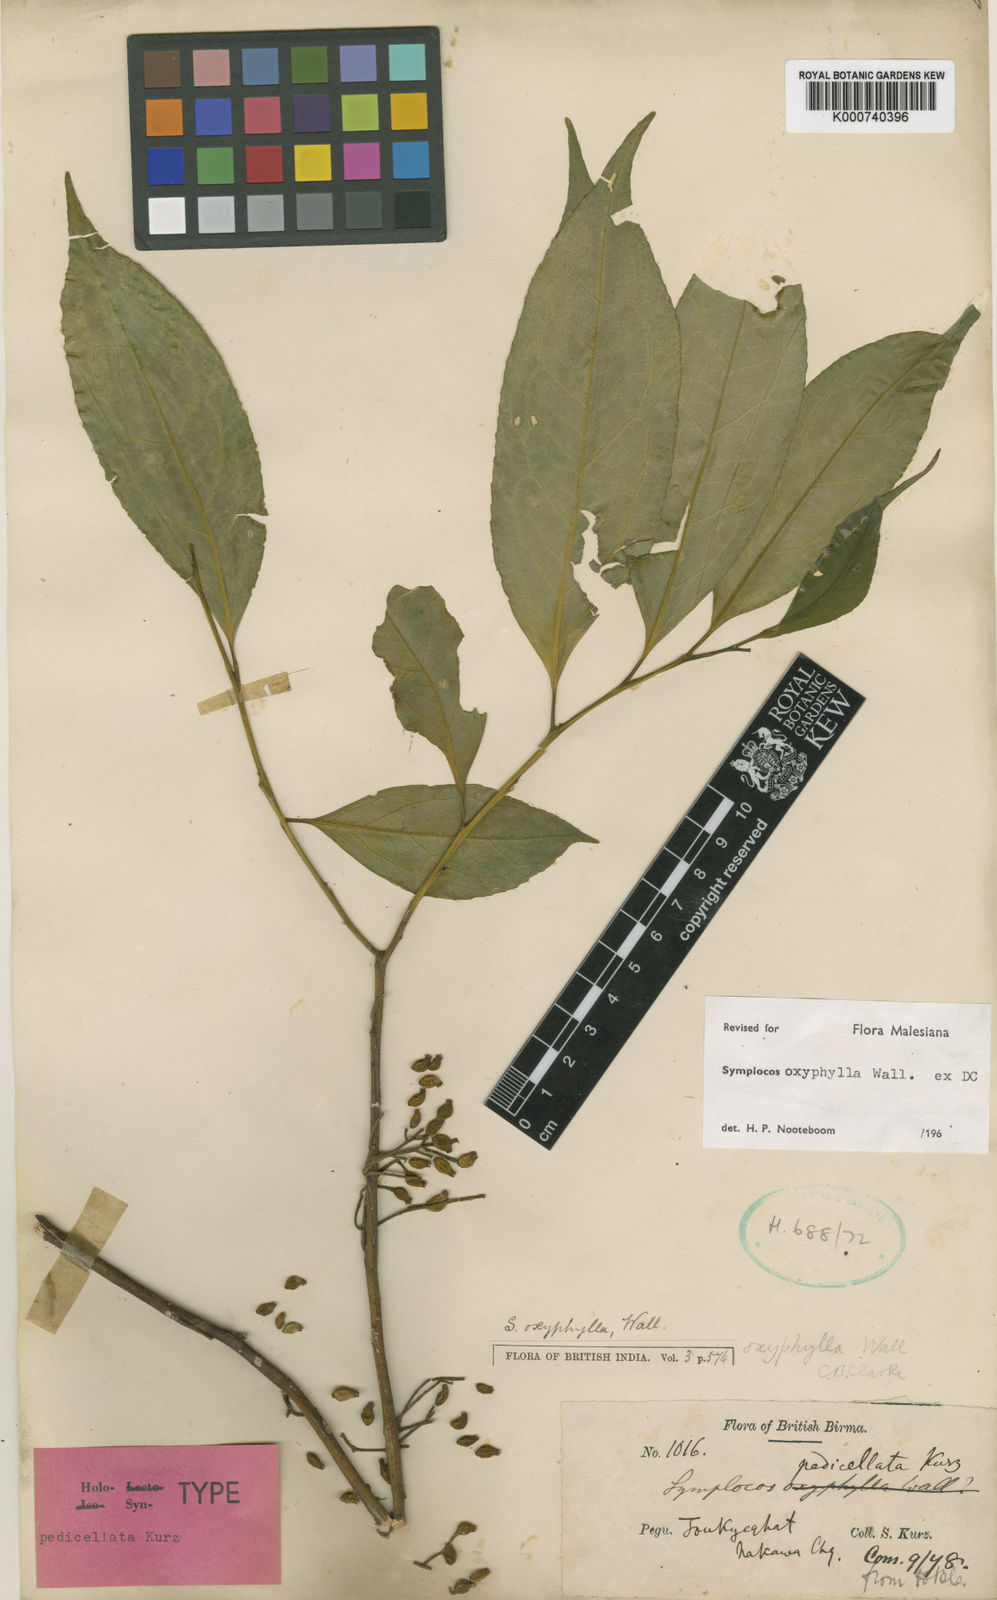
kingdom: Plantae
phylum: Tracheophyta
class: Magnoliopsida
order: Ericales
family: Symplocaceae
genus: Symplocos
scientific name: Symplocos
